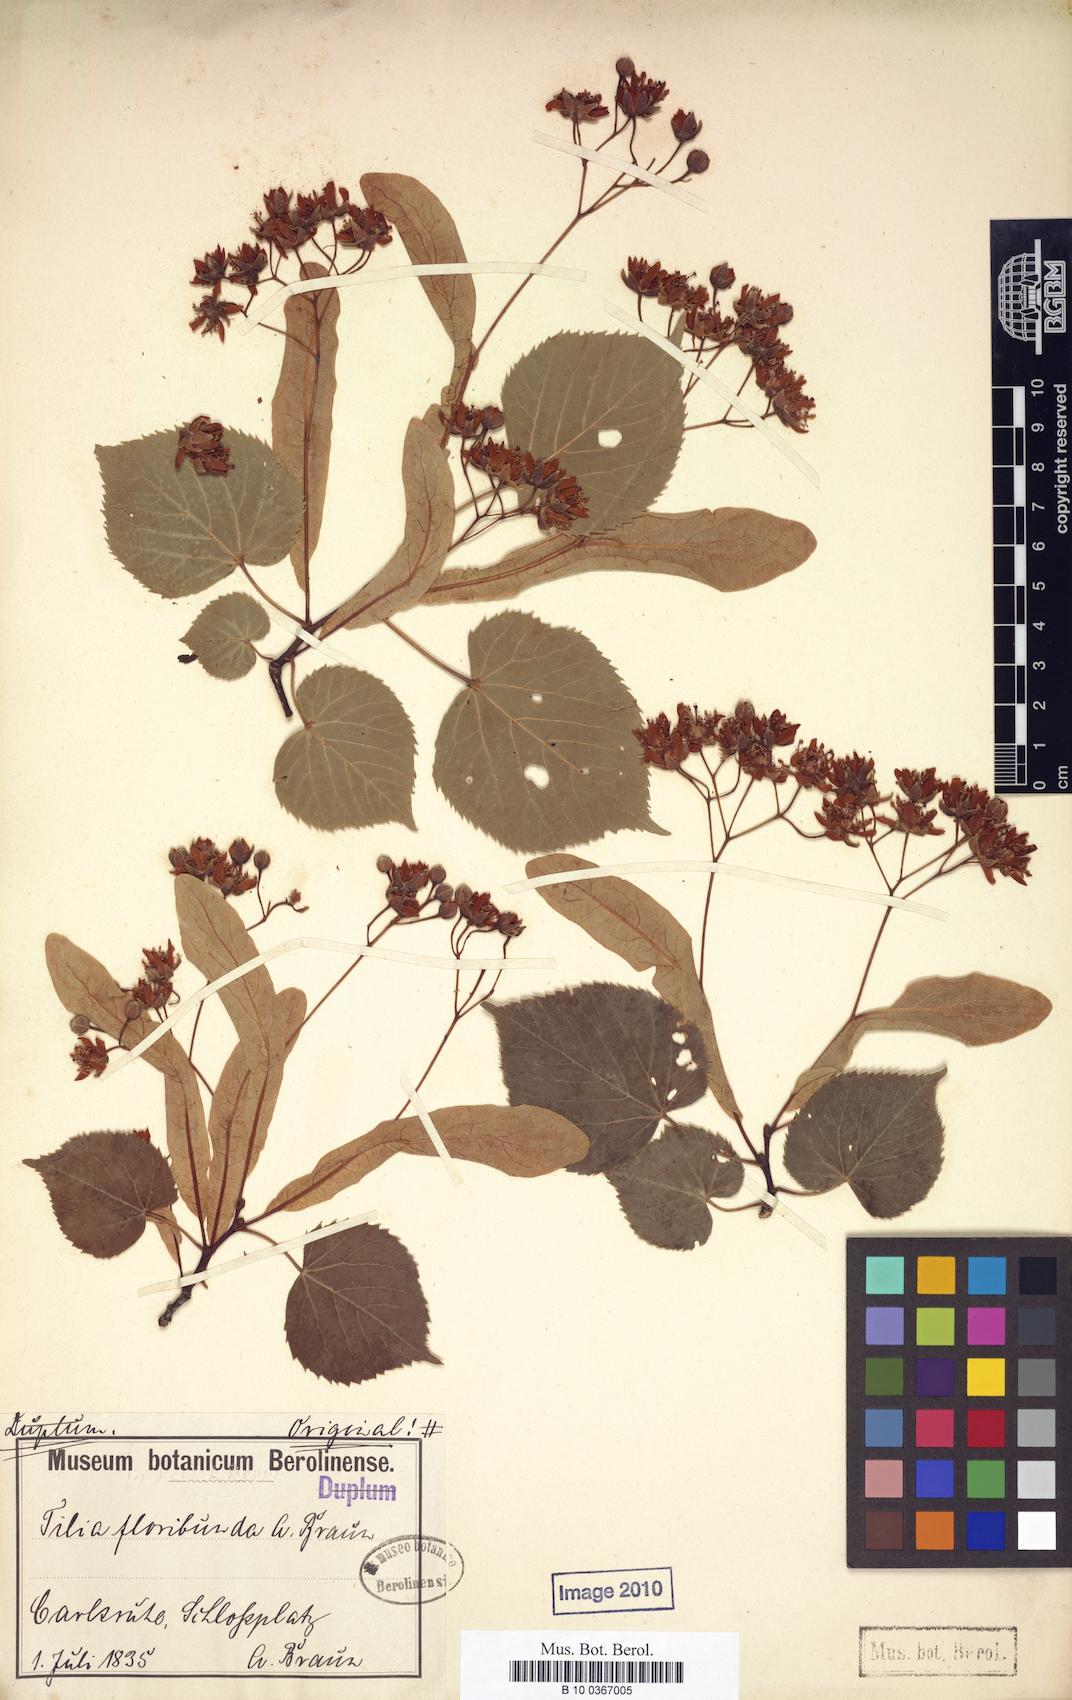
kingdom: Plantae
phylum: Tracheophyta
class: Magnoliopsida
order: Malvales
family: Malvaceae
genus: Tilia
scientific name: Tilia flavescens
